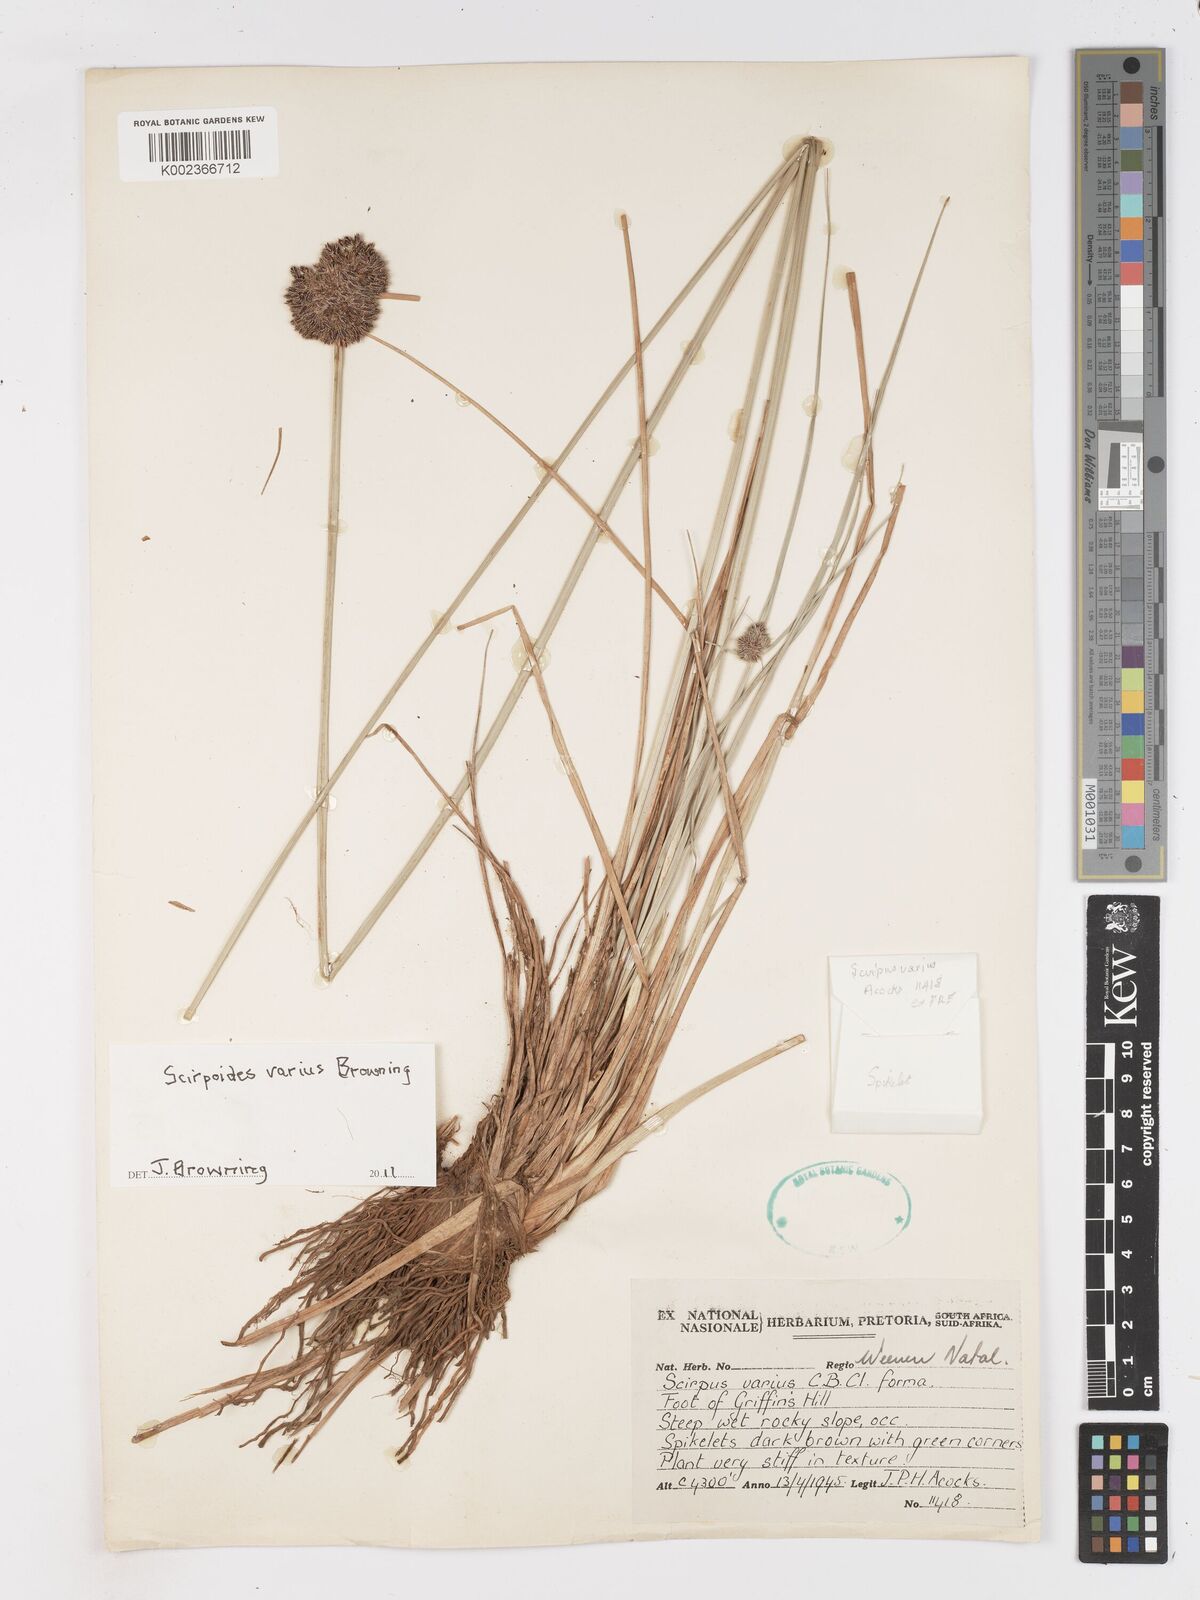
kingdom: Plantae
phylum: Tracheophyta
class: Liliopsida
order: Poales
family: Cyperaceae
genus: Scirpoides
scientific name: Scirpoides varia
